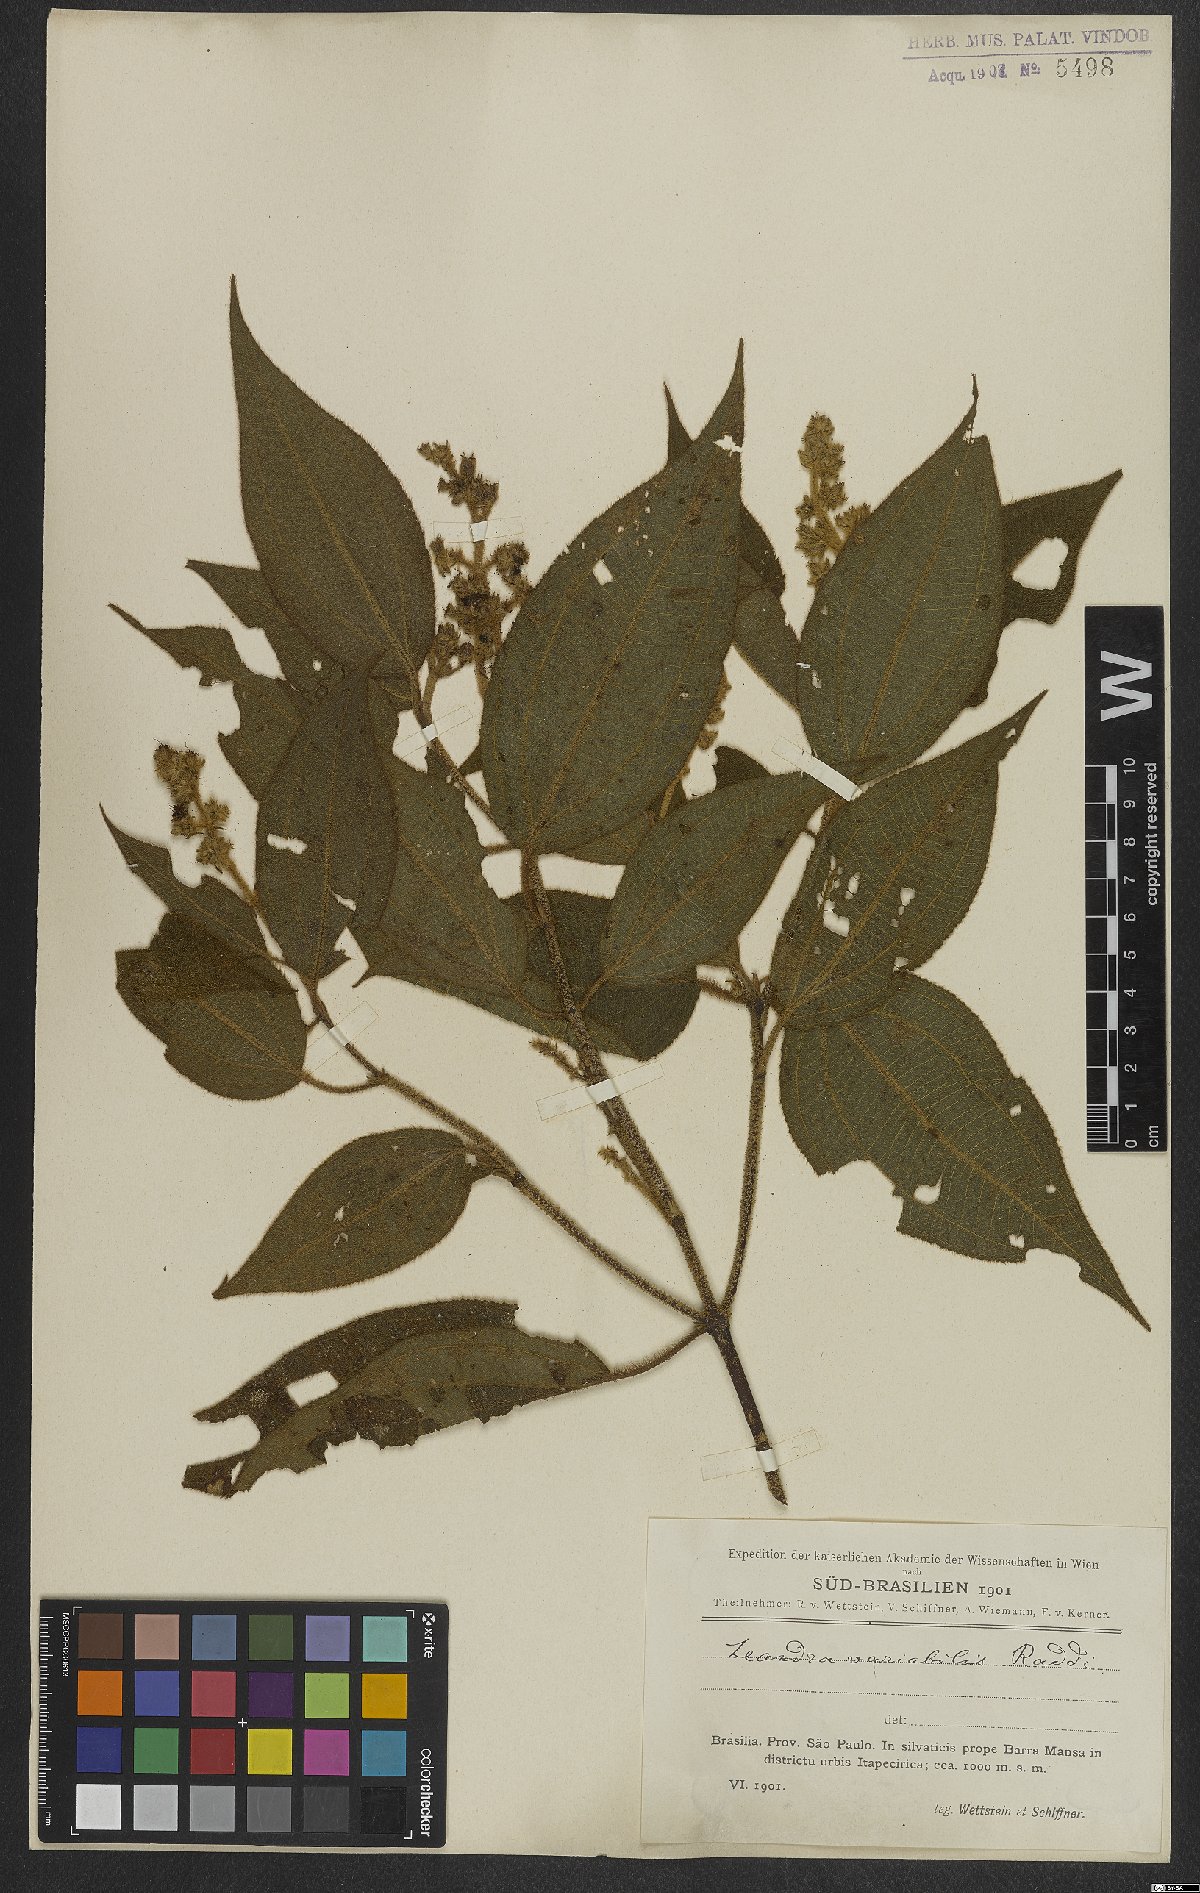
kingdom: Plantae
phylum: Tracheophyta
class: Magnoliopsida
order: Myrtales
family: Melastomataceae
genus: Miconia
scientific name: Miconia dasytricha
